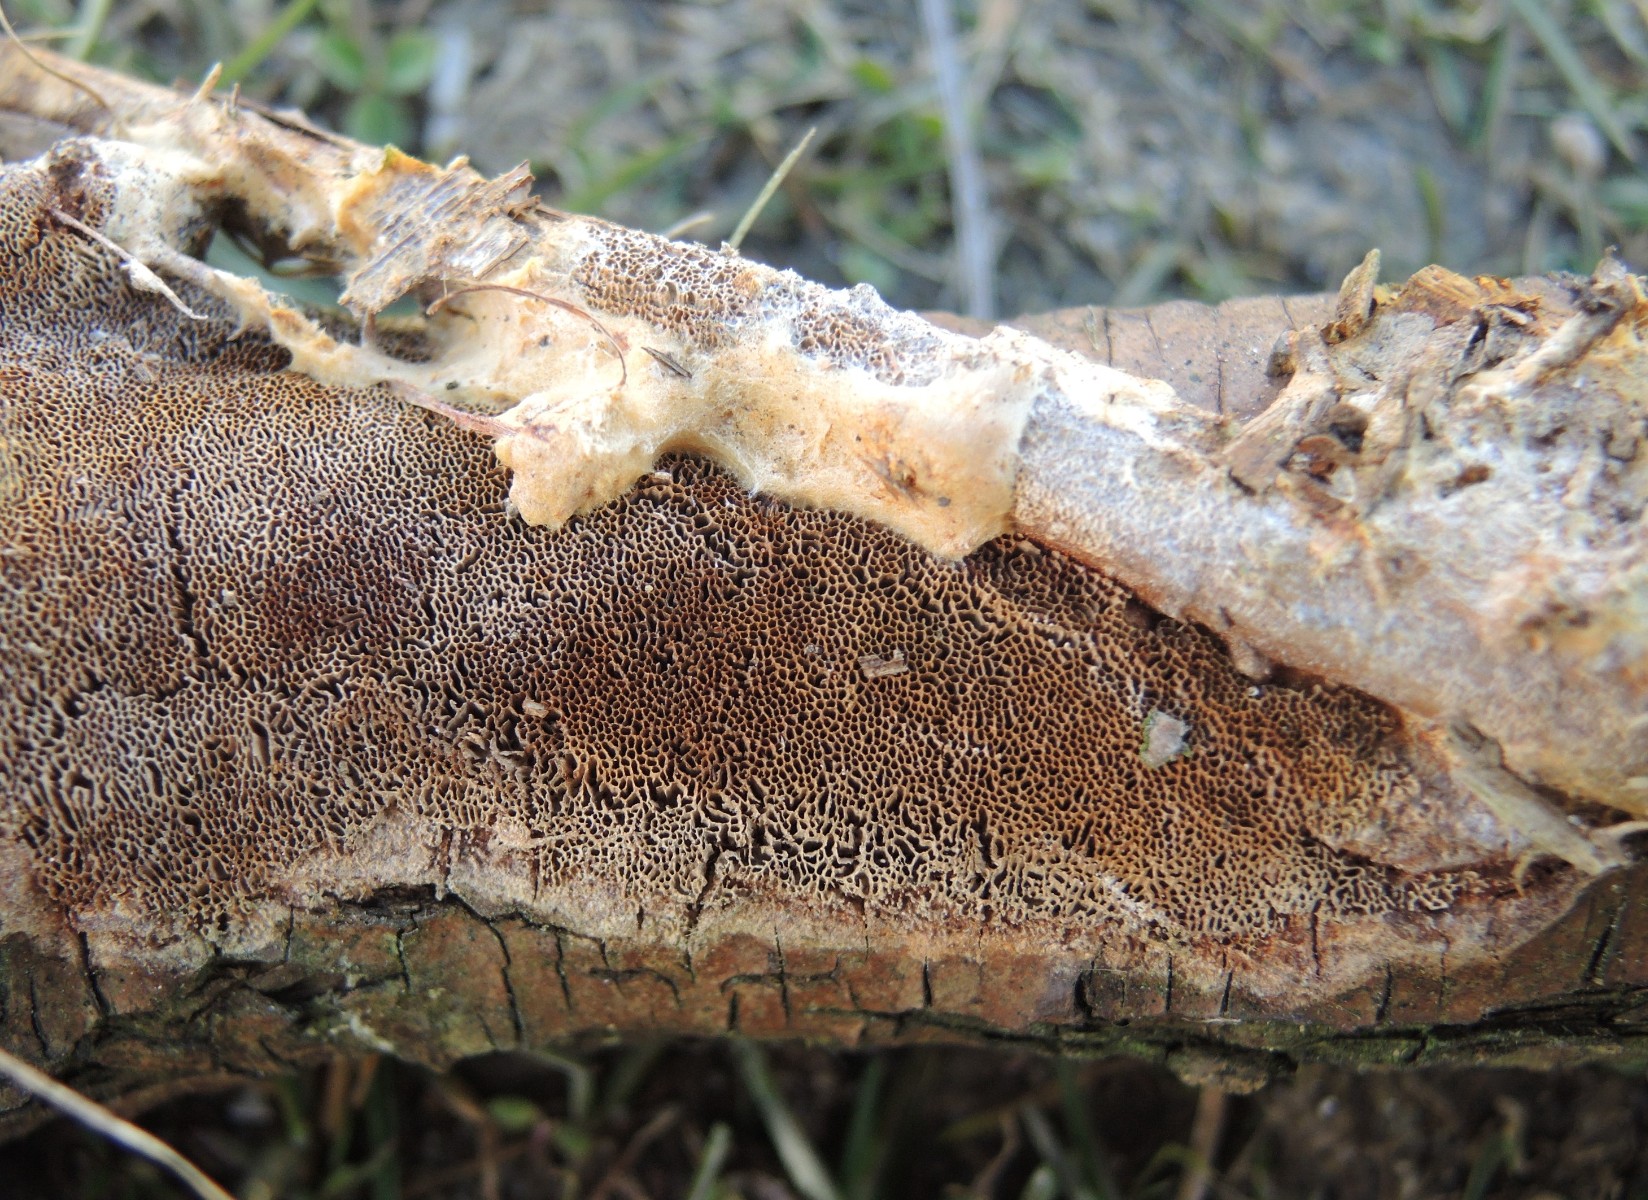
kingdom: Fungi
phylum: Basidiomycota
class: Agaricomycetes
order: Hymenochaetales
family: Hymenochaetaceae
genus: Fuscoporia
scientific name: Fuscoporia contigua
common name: grov ildporesvamp
